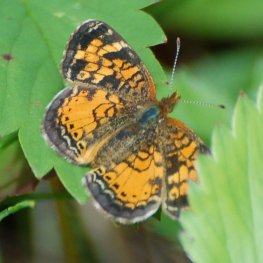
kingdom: Animalia
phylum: Arthropoda
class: Insecta
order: Lepidoptera
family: Nymphalidae
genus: Phyciodes
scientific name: Phyciodes tharos
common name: Northern Crescent
